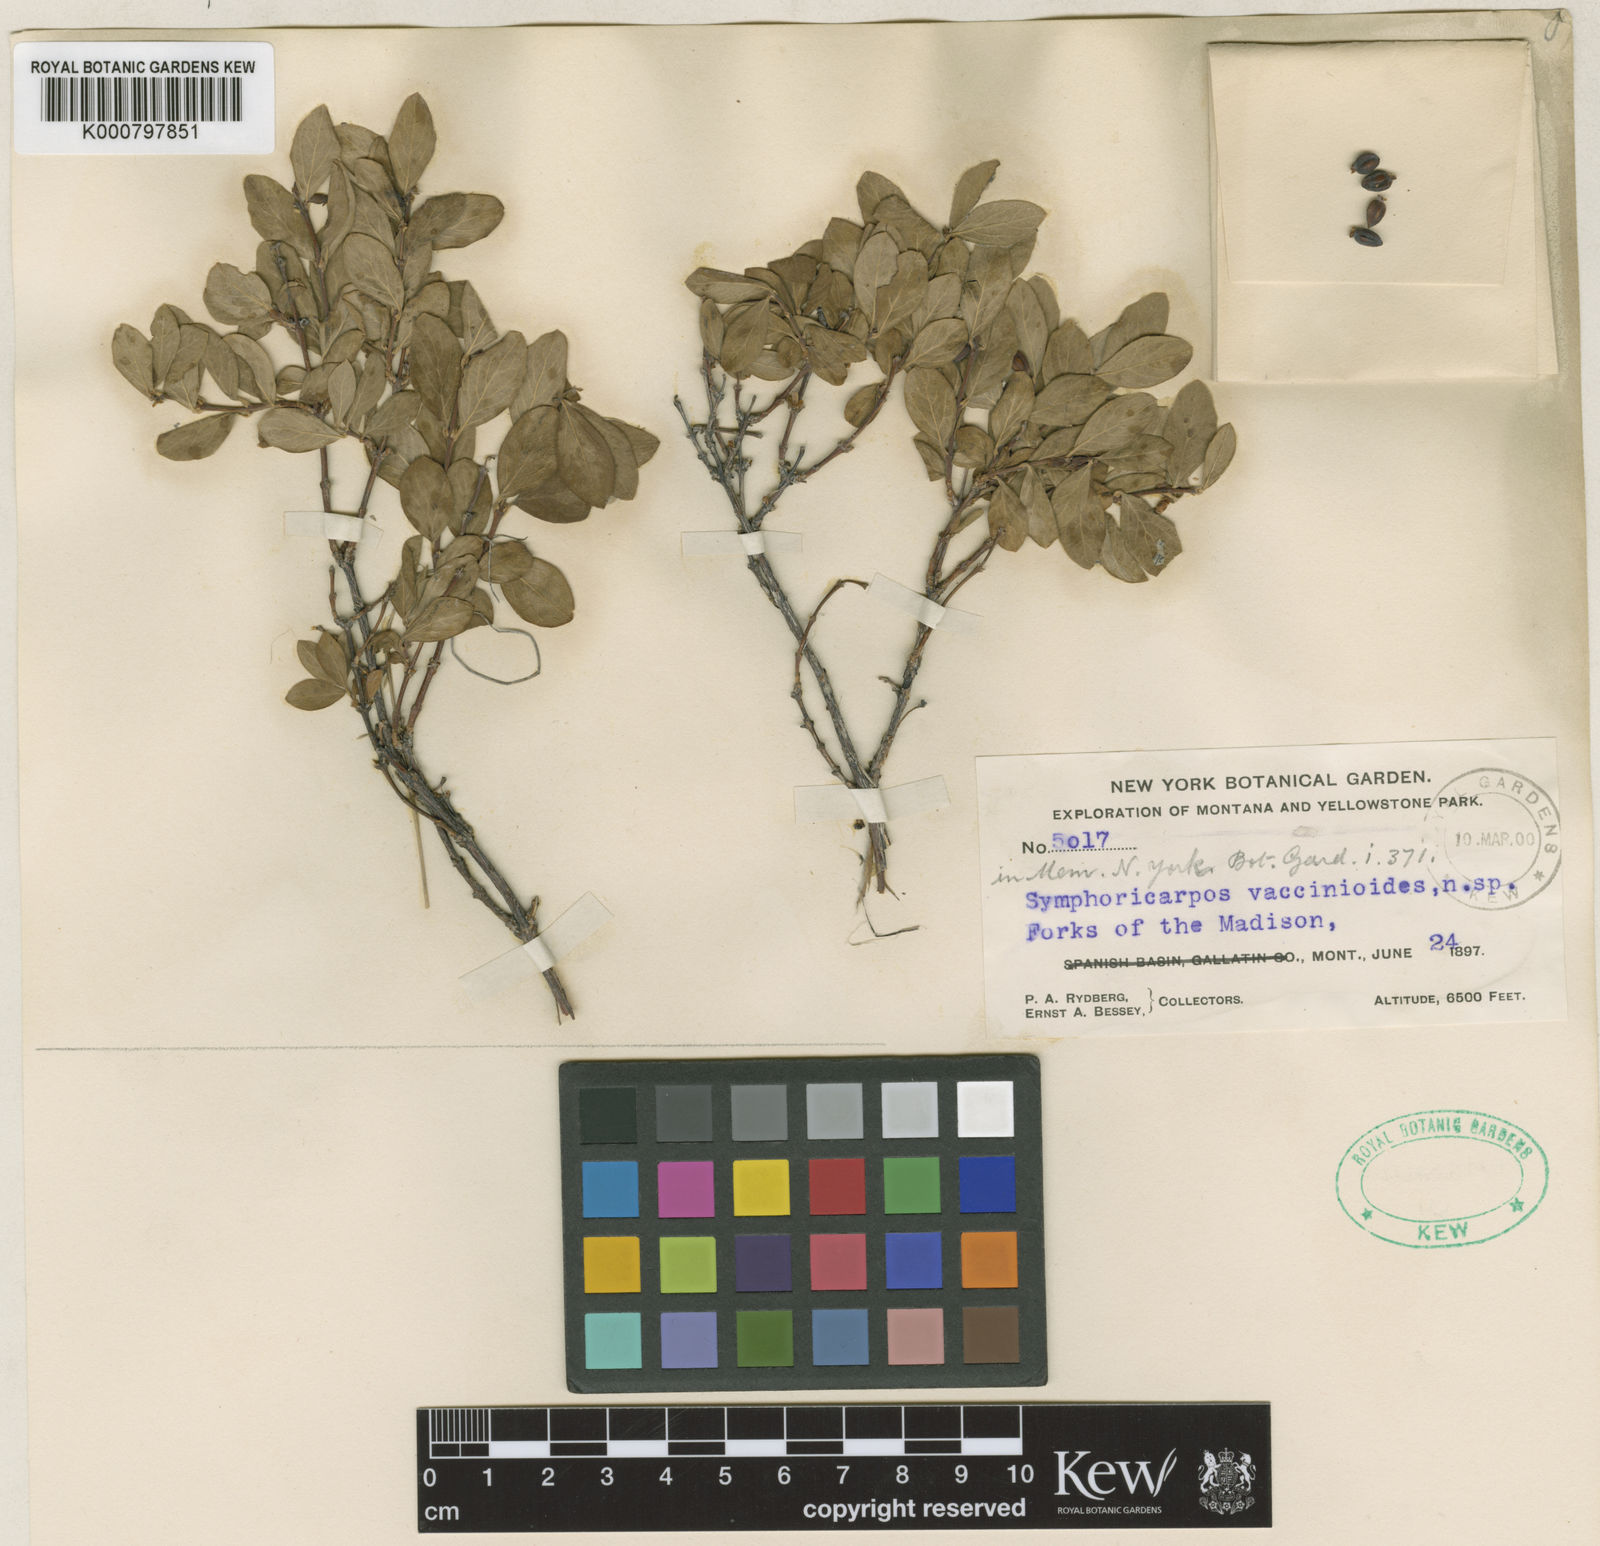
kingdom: Plantae
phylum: Tracheophyta
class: Magnoliopsida
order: Dipsacales
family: Caprifoliaceae
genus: Symphoricarpos
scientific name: Symphoricarpos rotundifolius
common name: Round-leaved snowberry
